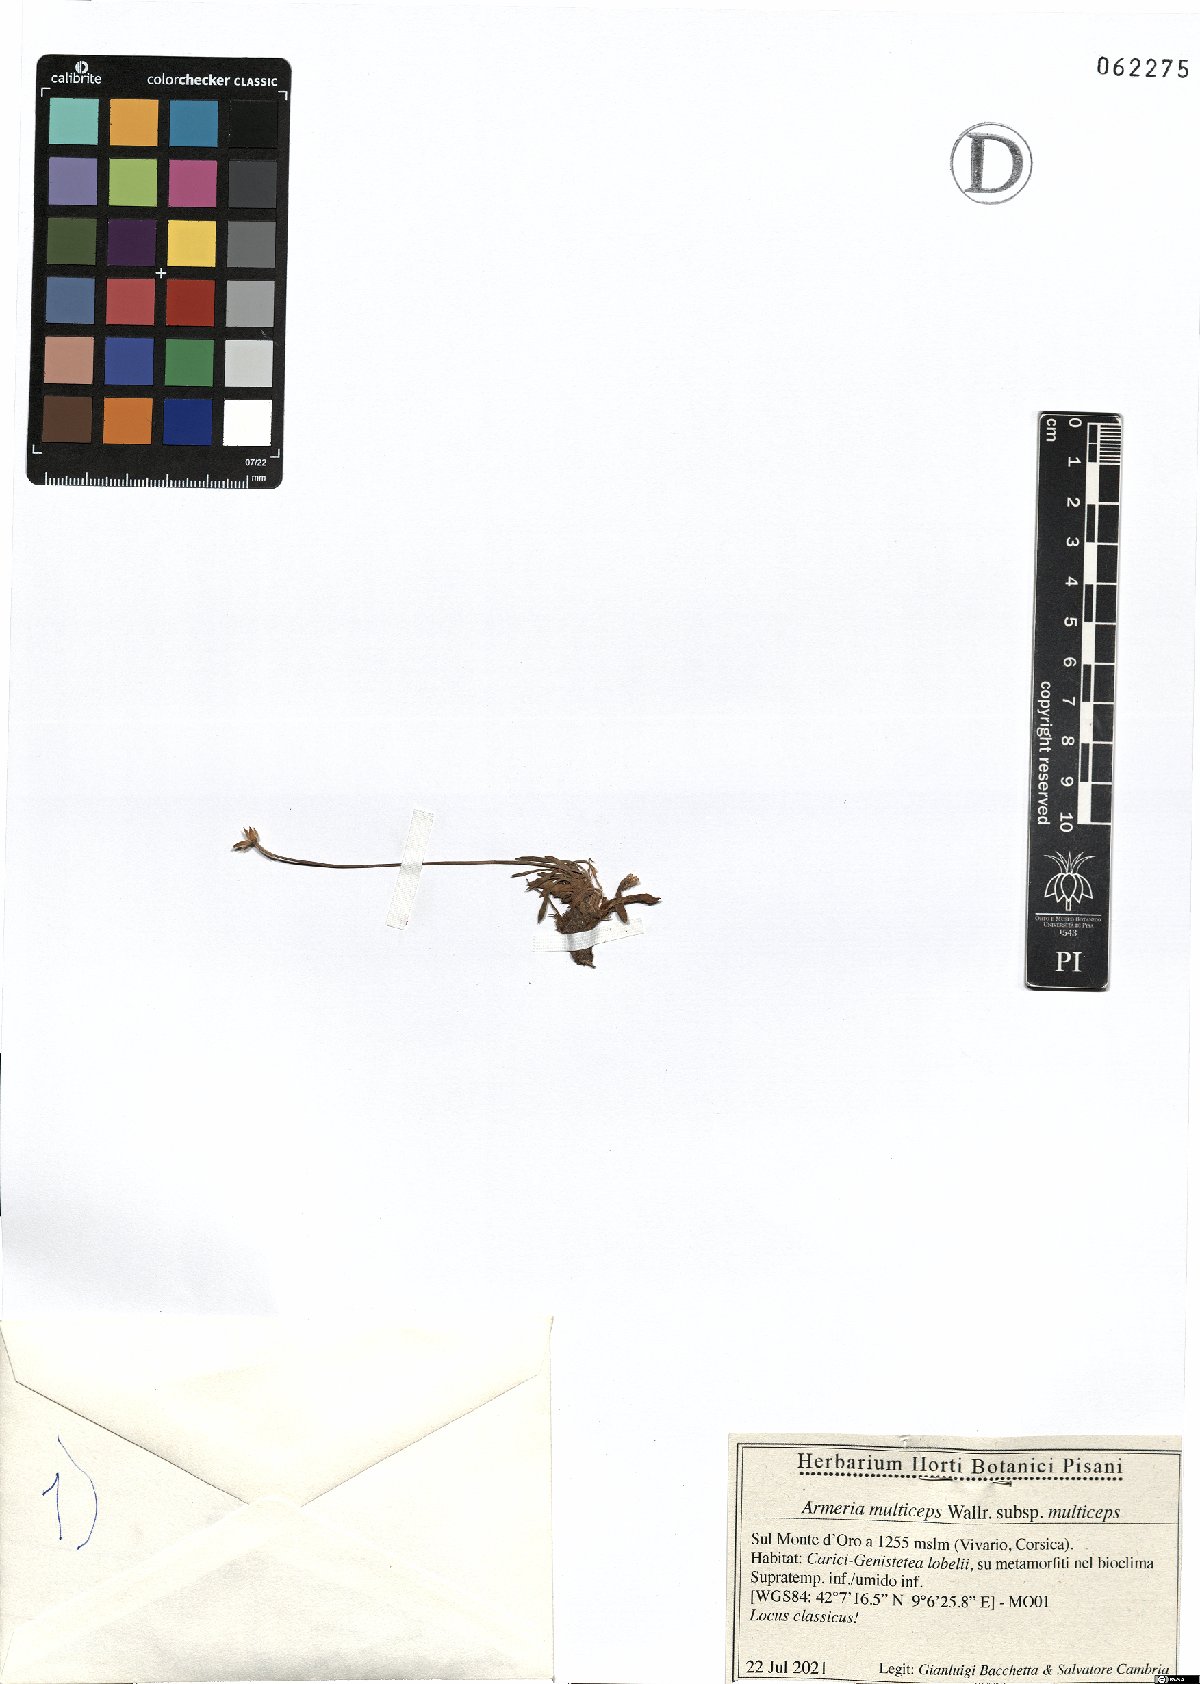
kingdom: Plantae
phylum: Tracheophyta
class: Magnoliopsida
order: Caryophyllales
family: Plumbaginaceae
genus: Armeria
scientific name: Armeria multiceps
